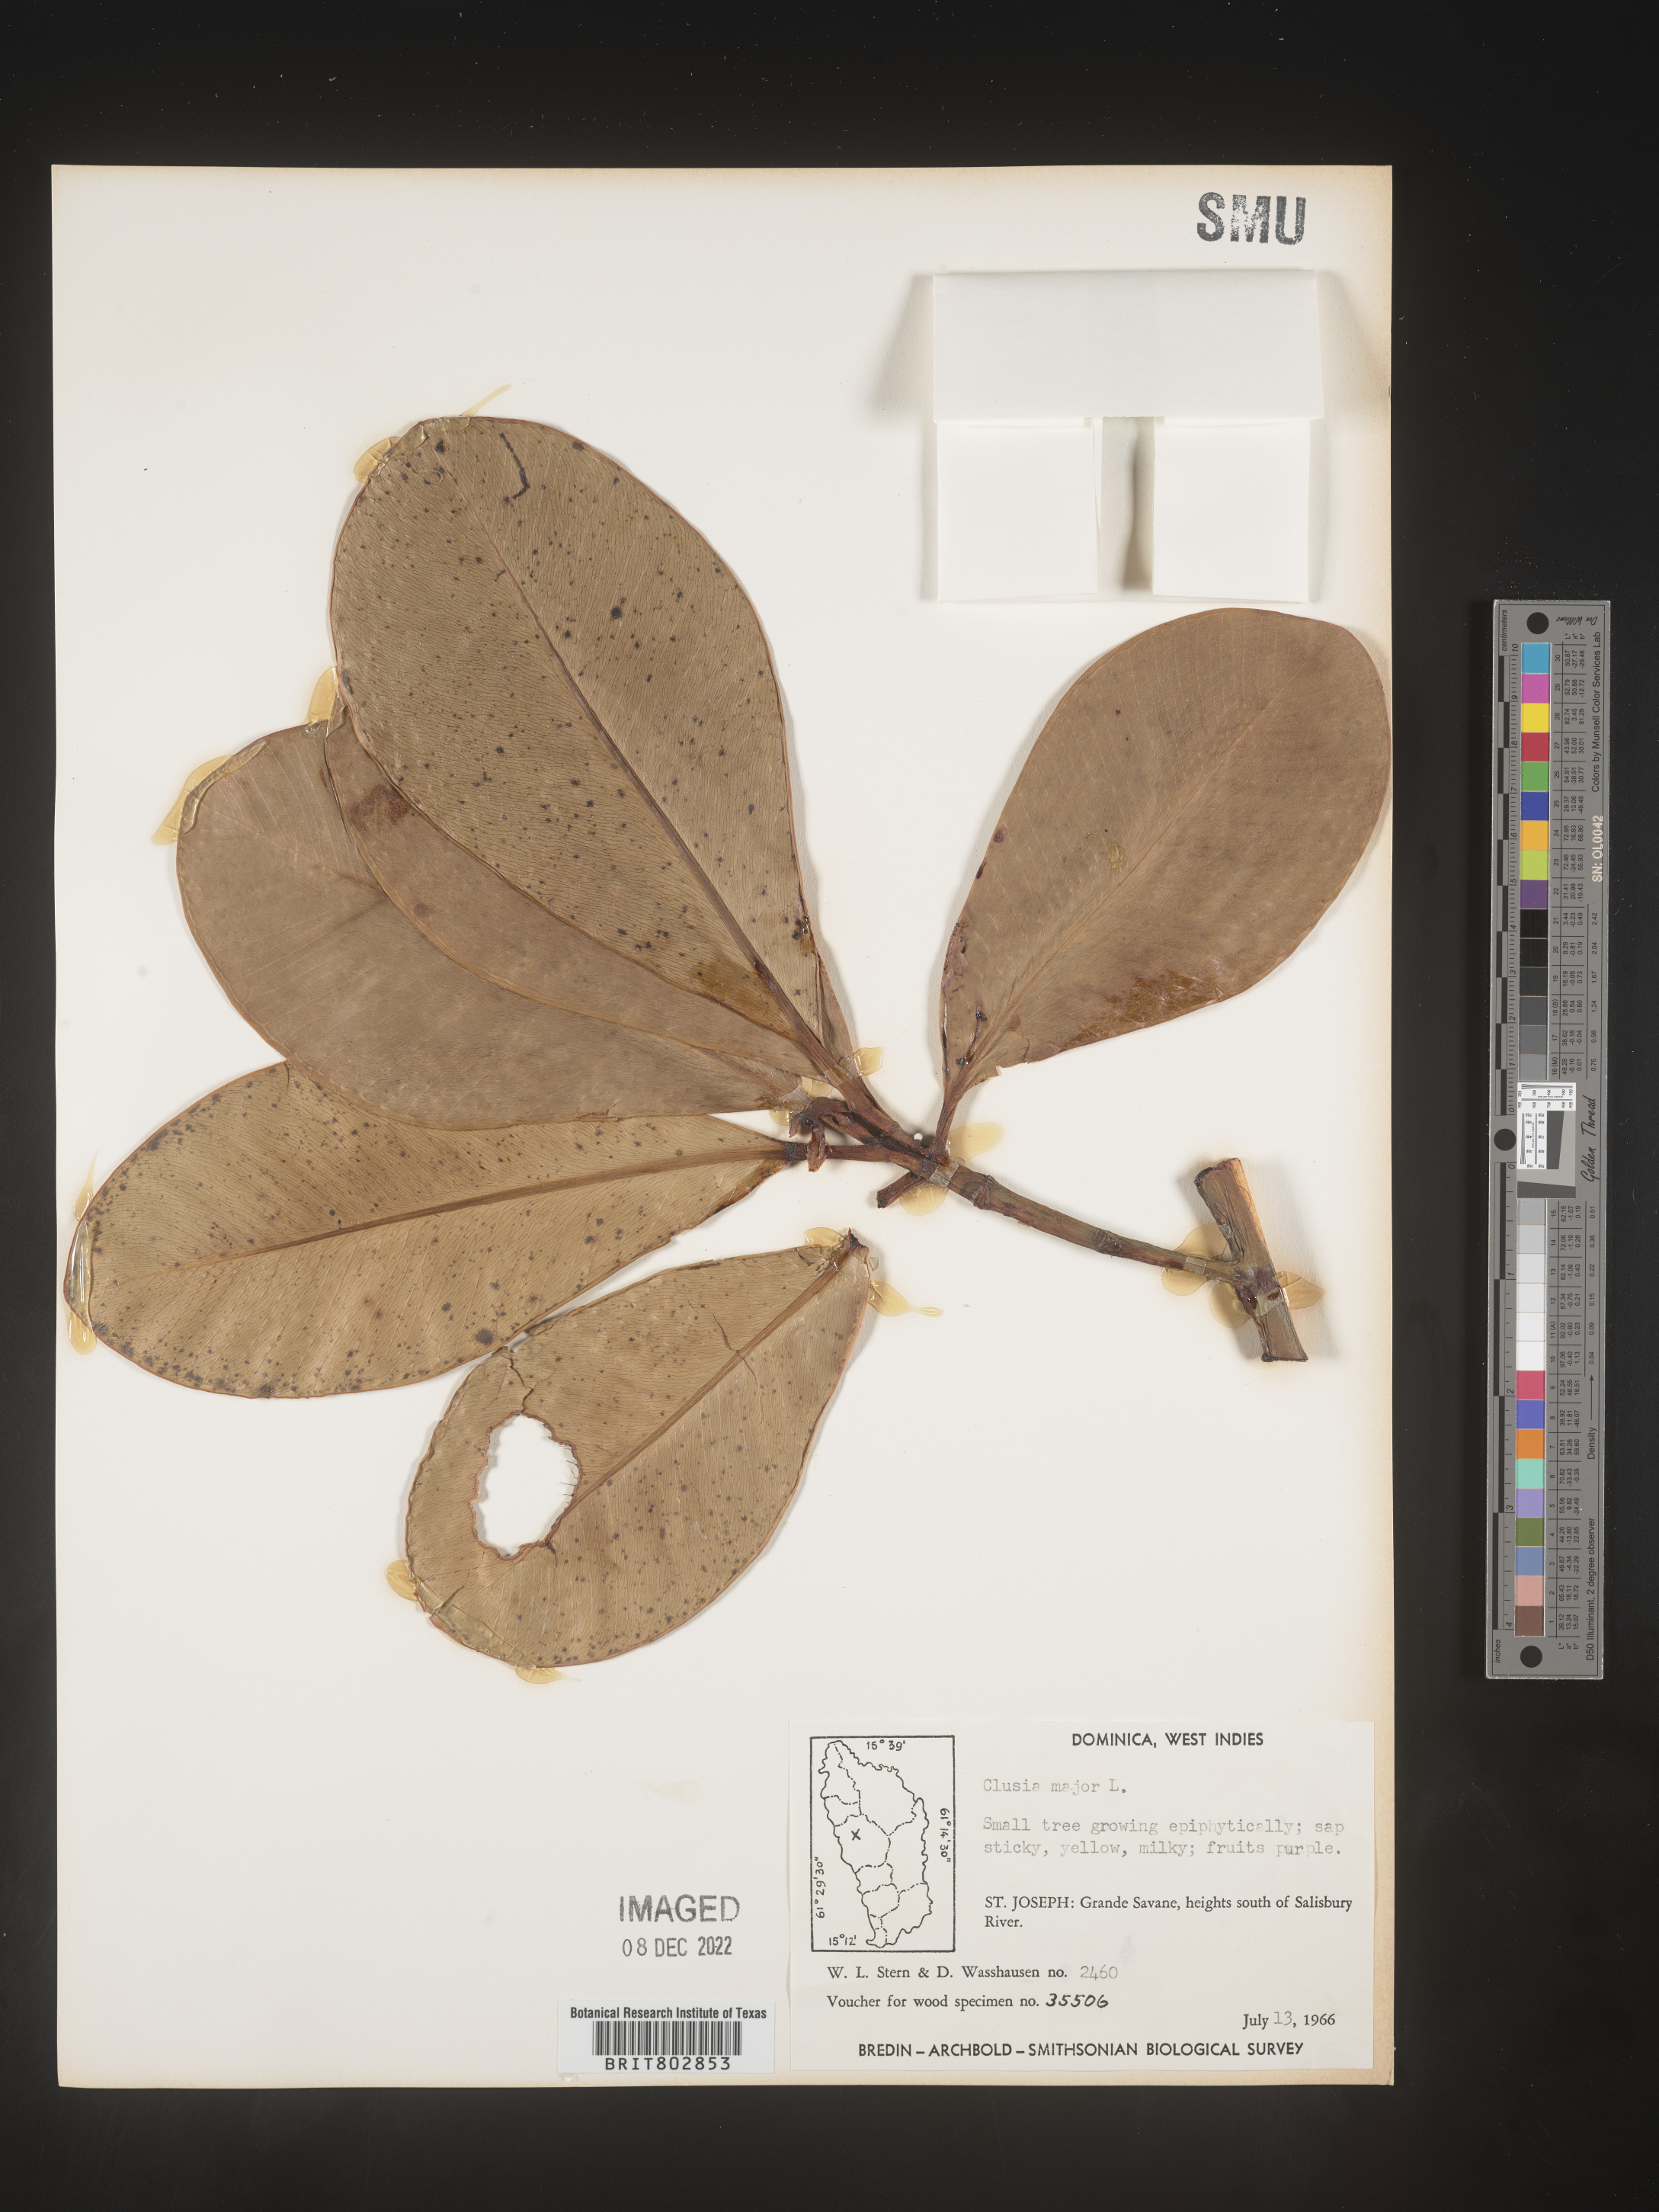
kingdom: Plantae
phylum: Tracheophyta
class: Magnoliopsida
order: Malpighiales
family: Clusiaceae
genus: Clusia
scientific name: Clusia
